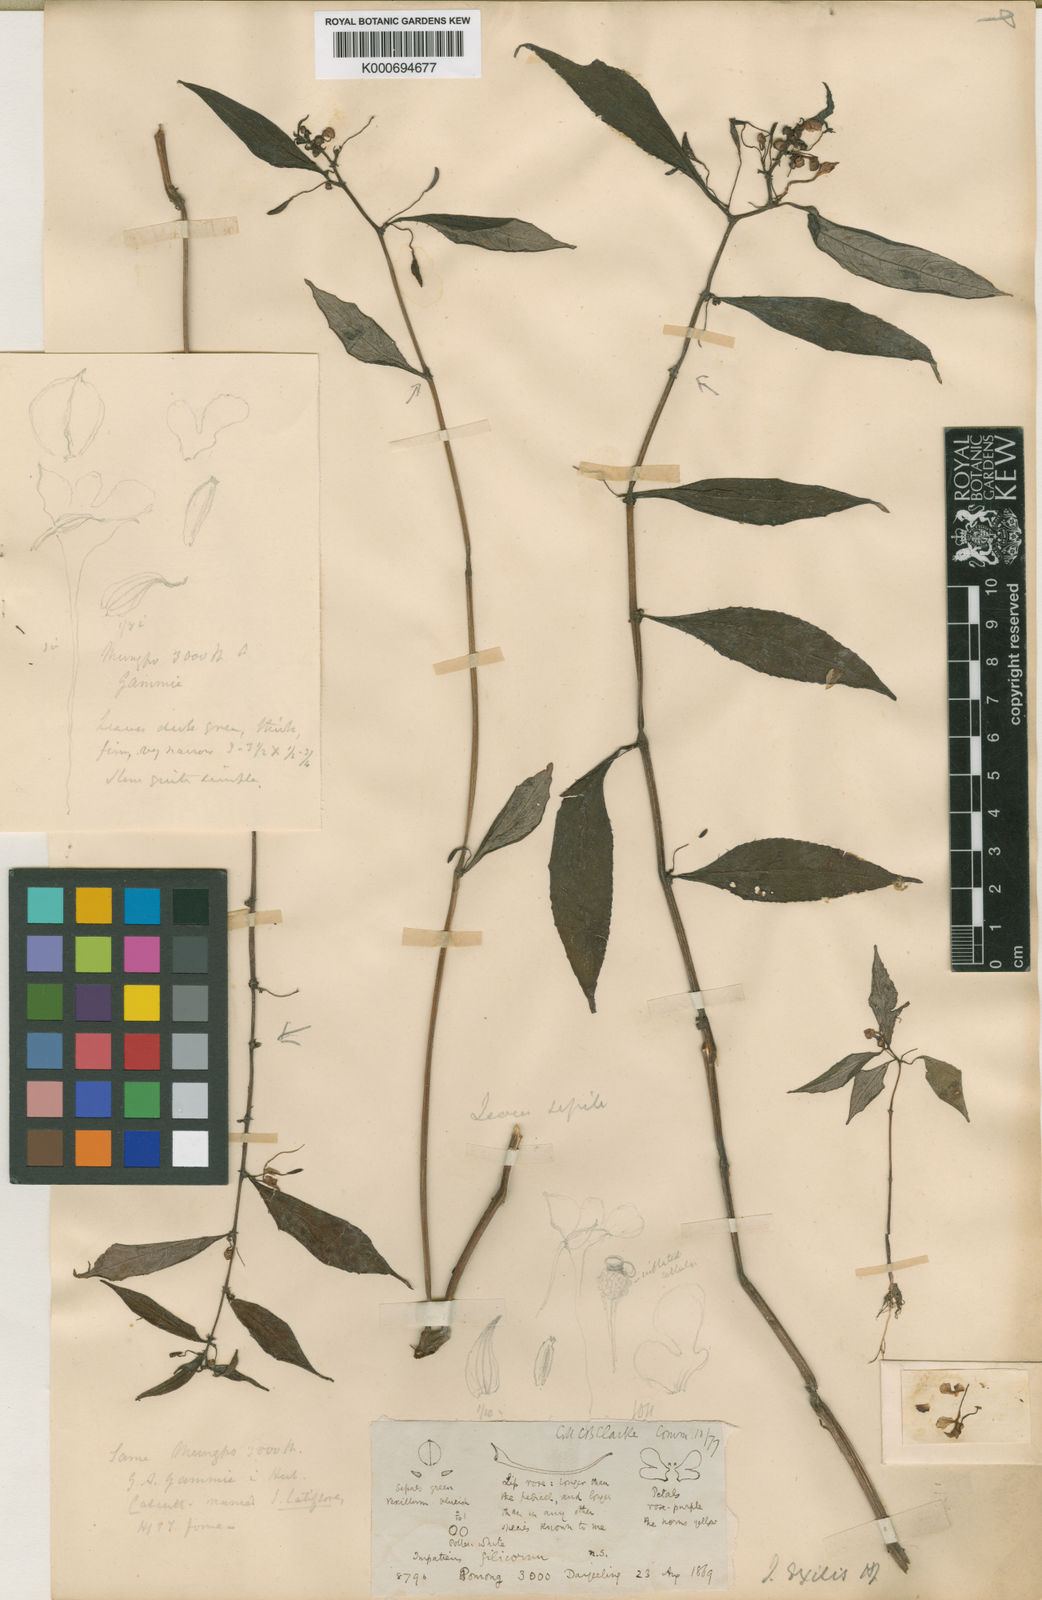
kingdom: Plantae
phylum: Tracheophyta
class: Magnoliopsida
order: Ericales
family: Balsaminaceae
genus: Impatiens
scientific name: Impatiens exilis
